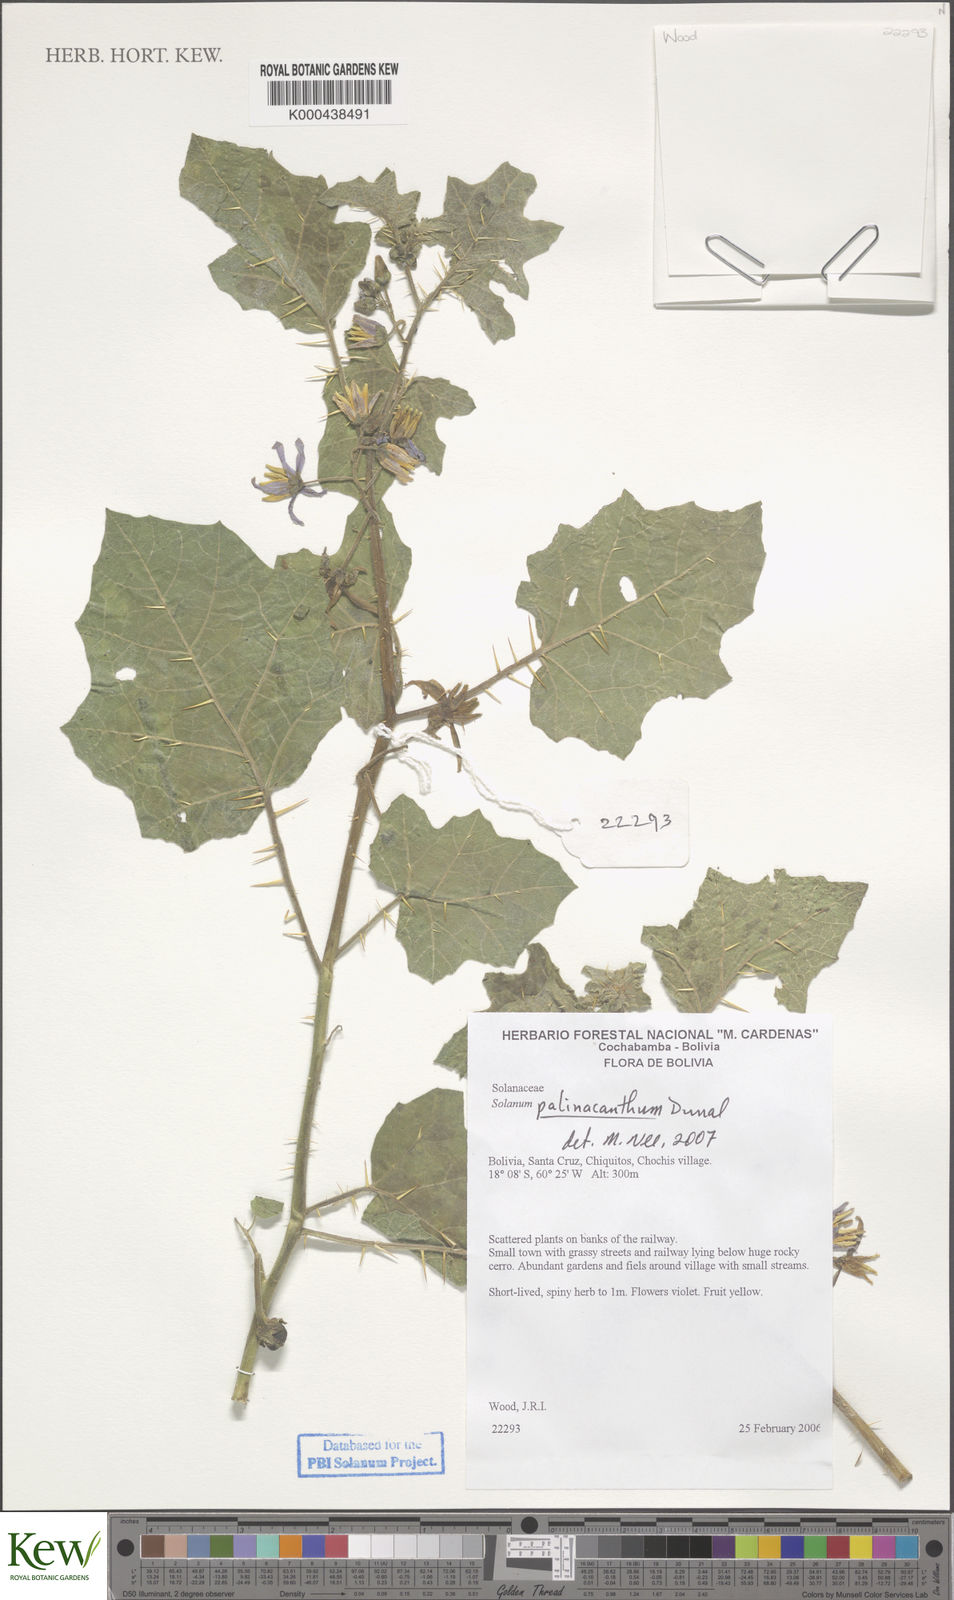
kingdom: Plantae
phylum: Tracheophyta
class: Magnoliopsida
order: Solanales
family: Solanaceae
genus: Solanum
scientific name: Solanum palinacanthum
